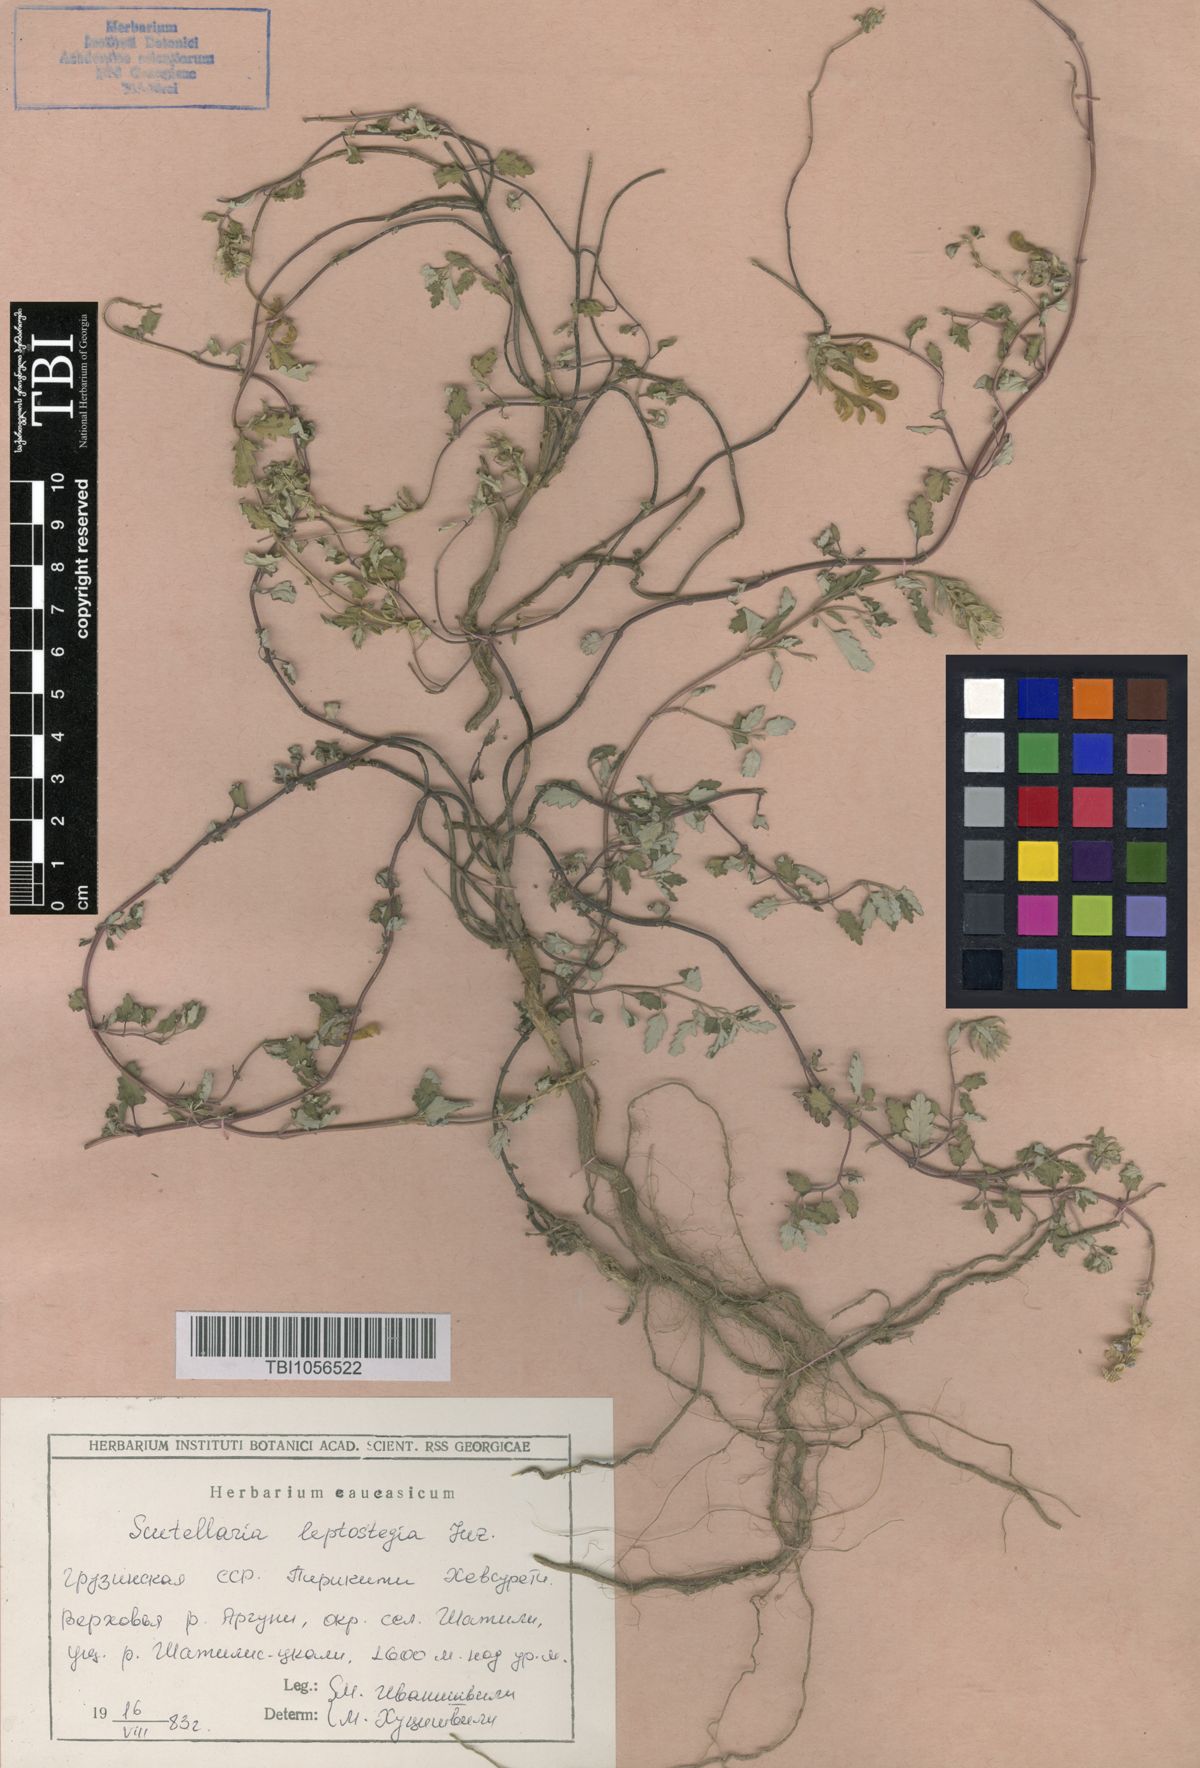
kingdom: Plantae
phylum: Tracheophyta
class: Magnoliopsida
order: Lamiales
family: Lamiaceae
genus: Scutellaria
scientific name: Scutellaria leptostegia
